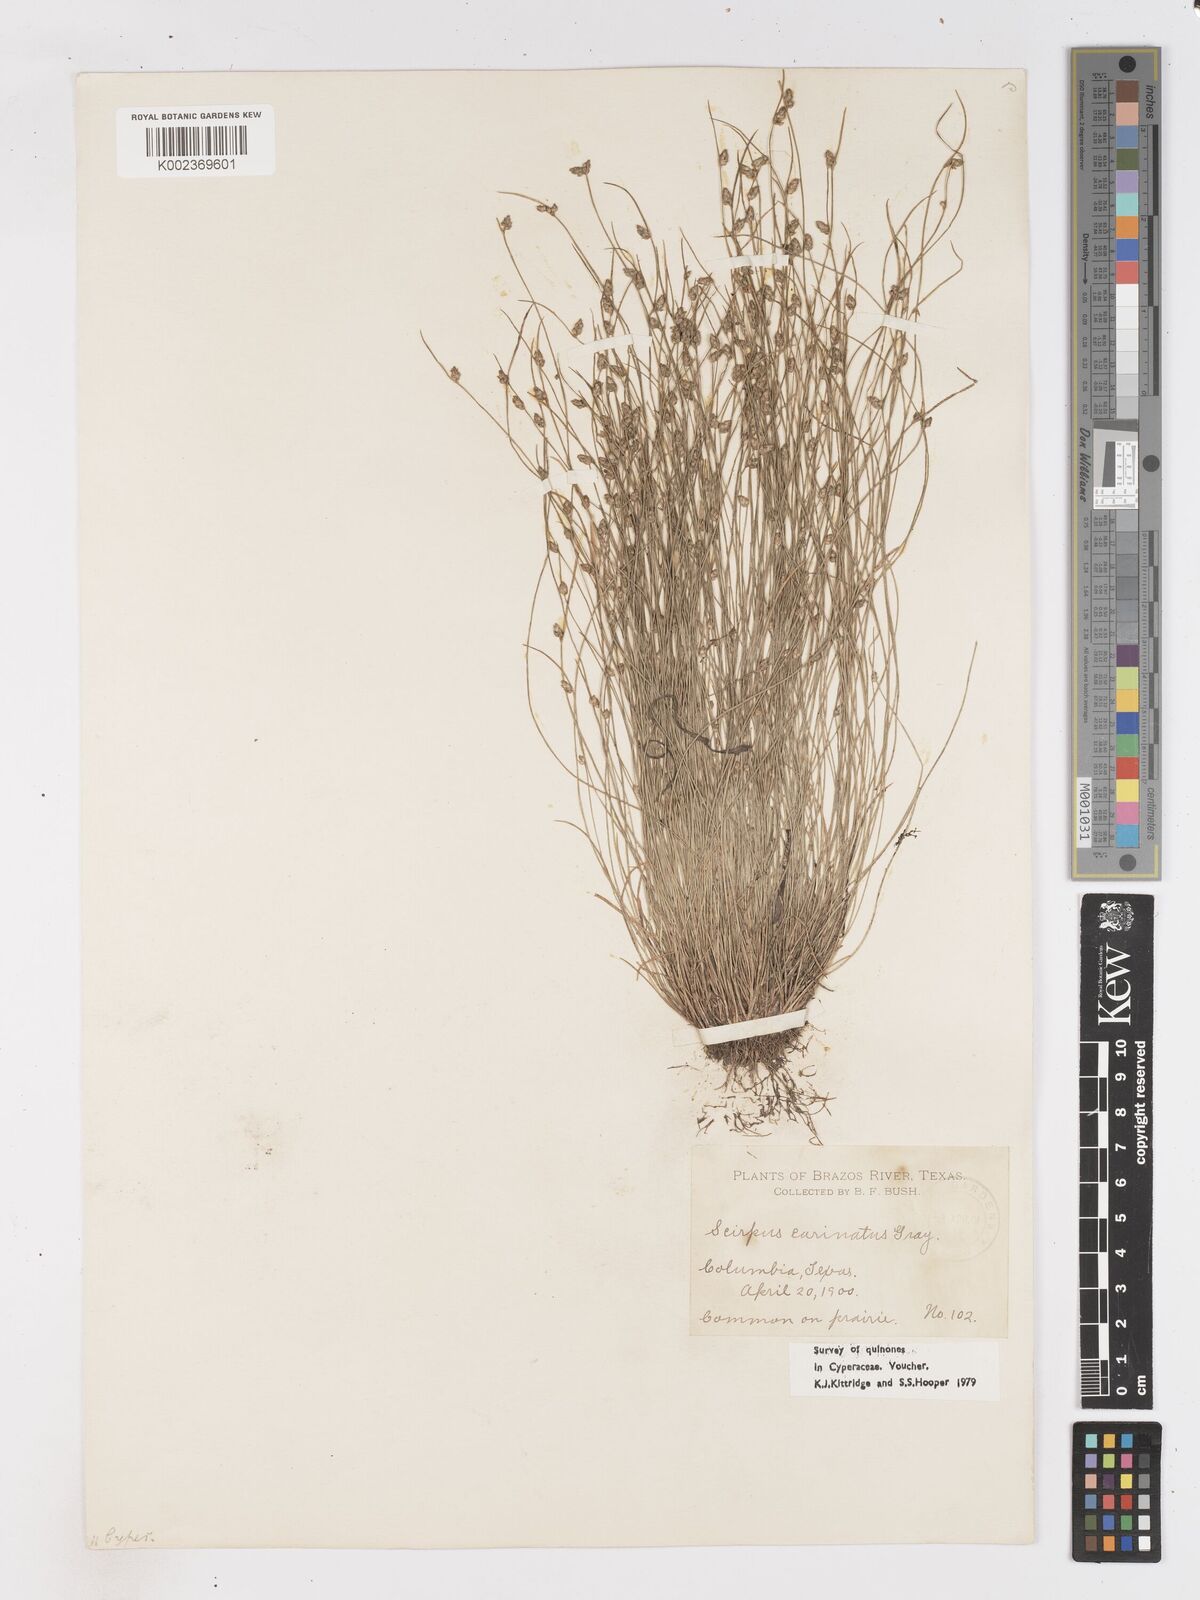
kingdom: Plantae
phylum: Tracheophyta
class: Liliopsida
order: Poales
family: Cyperaceae
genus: Isolepis
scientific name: Isolepis carinata
